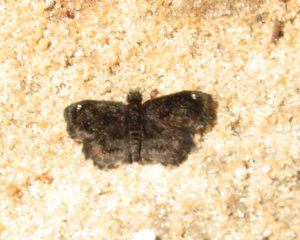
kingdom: Animalia
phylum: Arthropoda
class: Insecta
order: Lepidoptera
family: Hesperiidae
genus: Staphylus
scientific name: Staphylus mazans
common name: Hayhurst's Scallopwing
